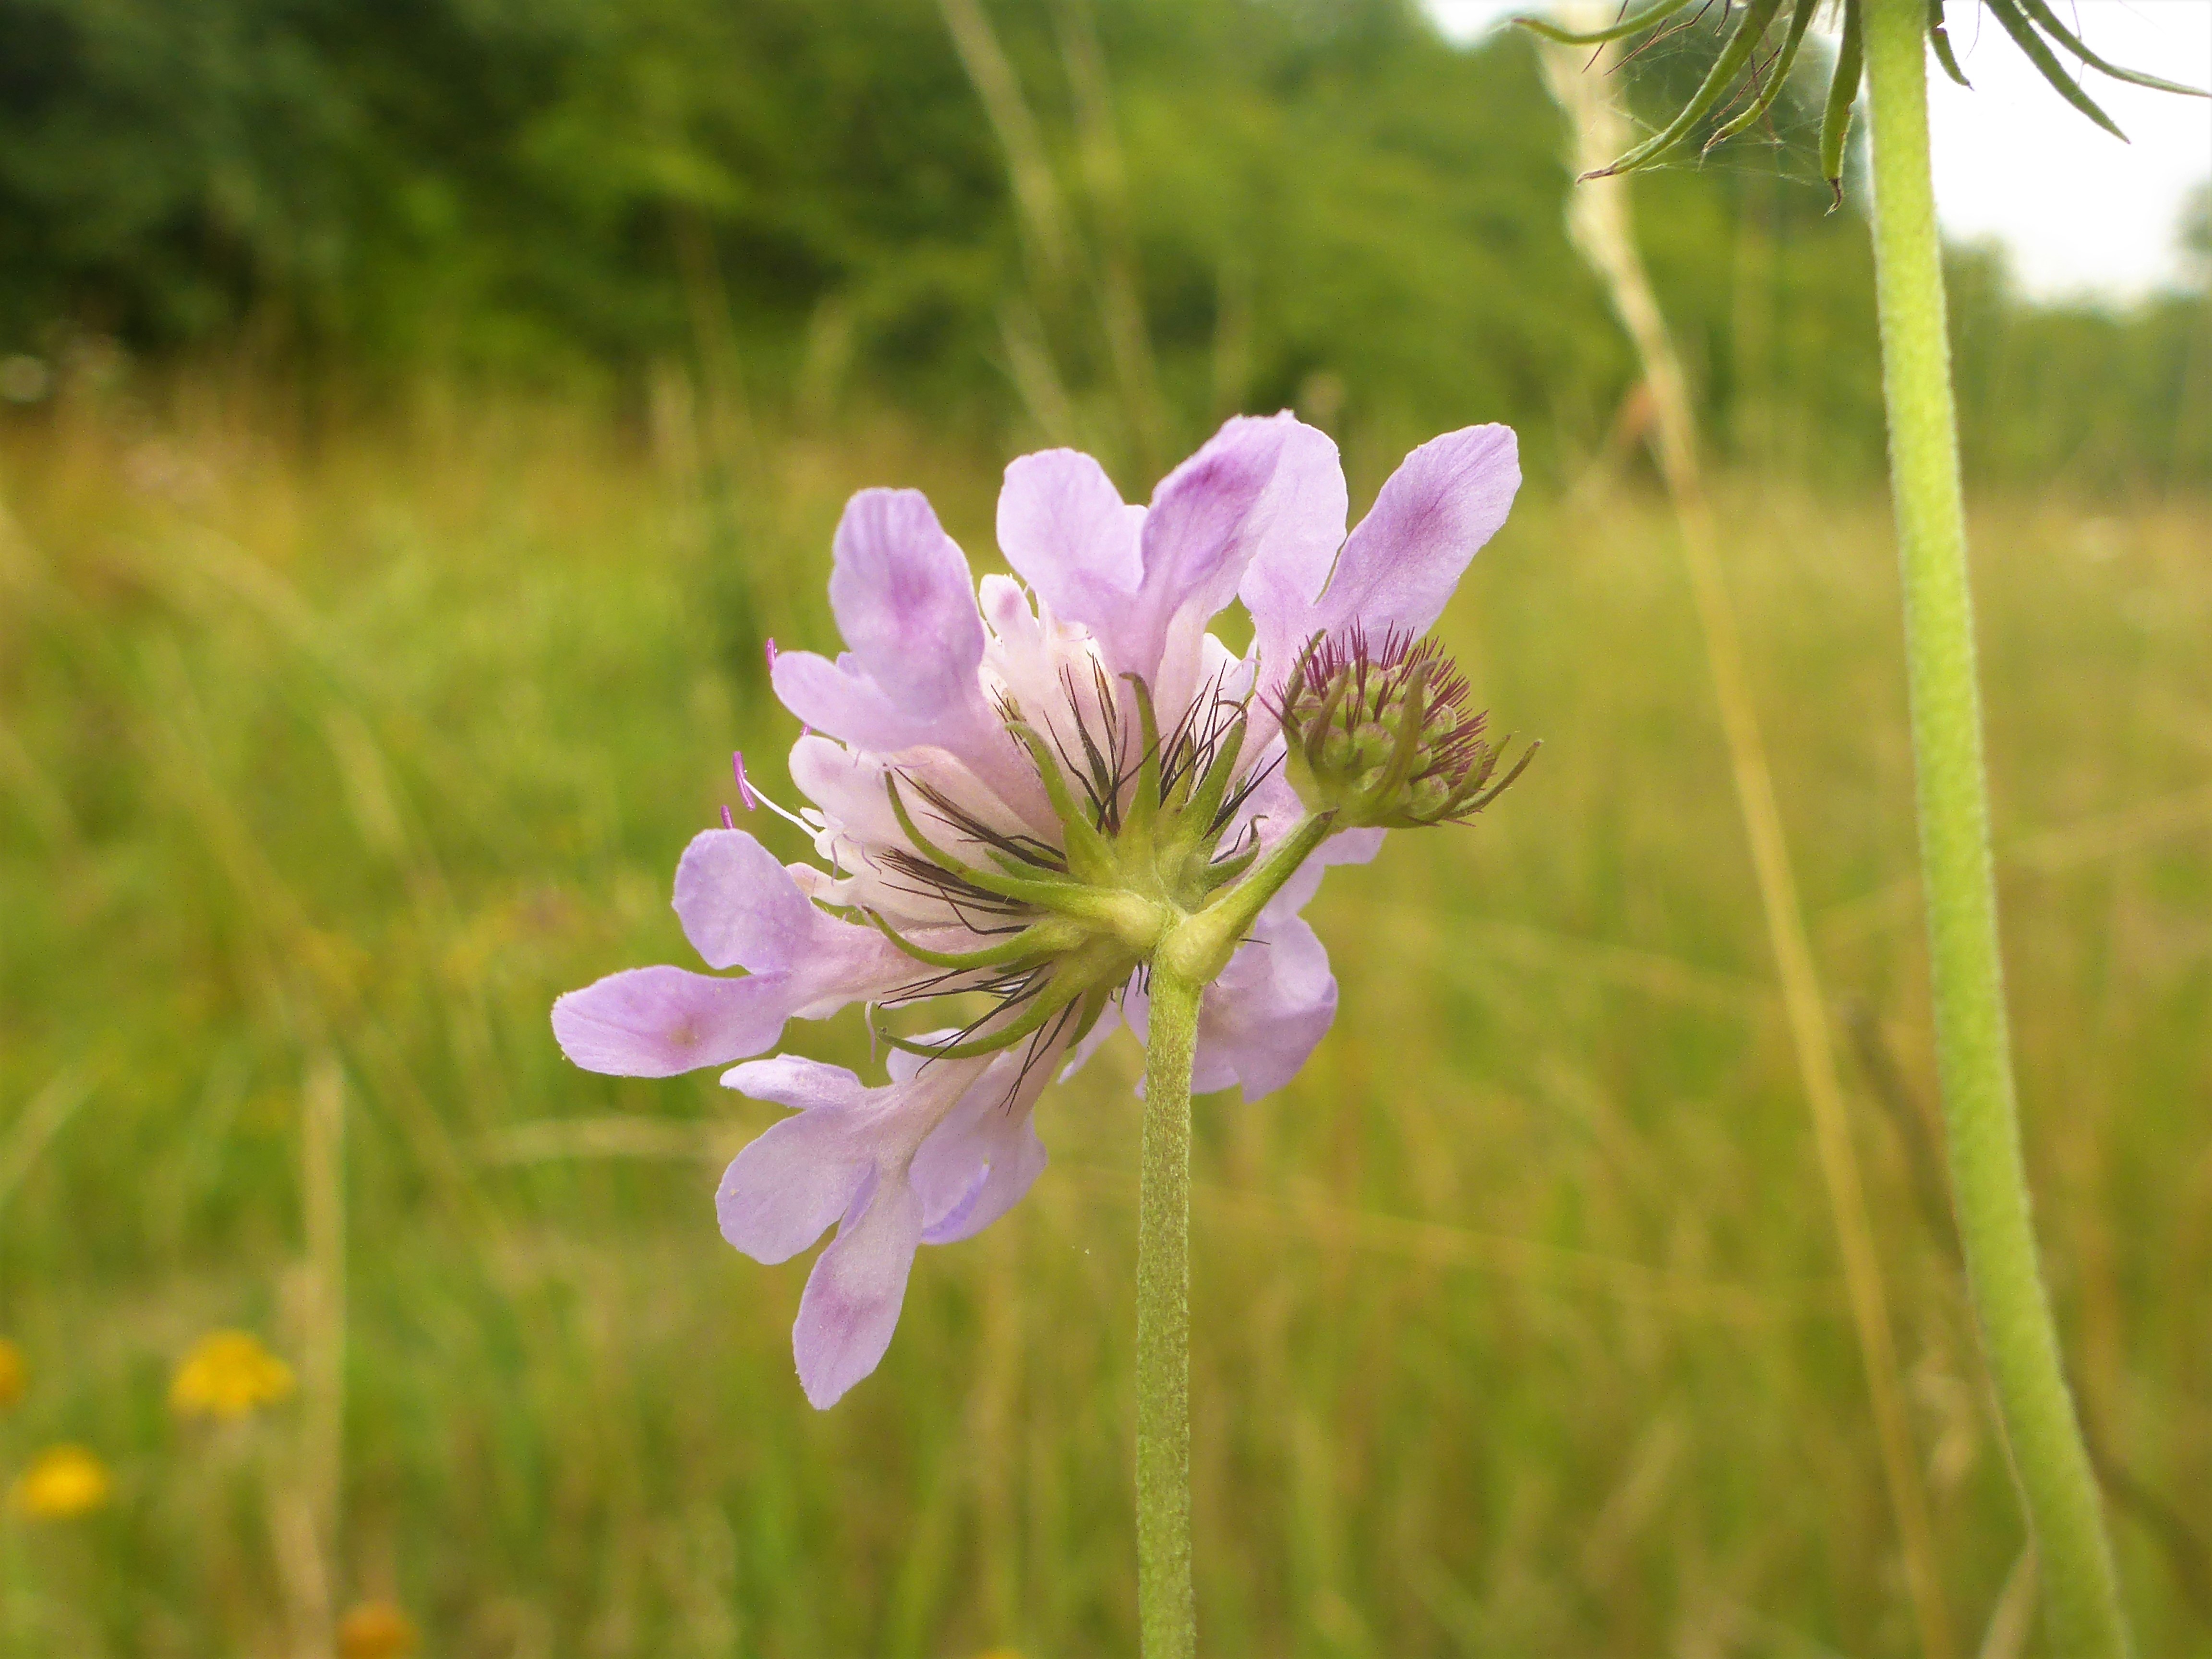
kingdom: Plantae
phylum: Tracheophyta
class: Magnoliopsida
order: Dipsacales
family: Caprifoliaceae
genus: Scabiosa
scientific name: Scabiosa columbaria
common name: Due-skabiose
